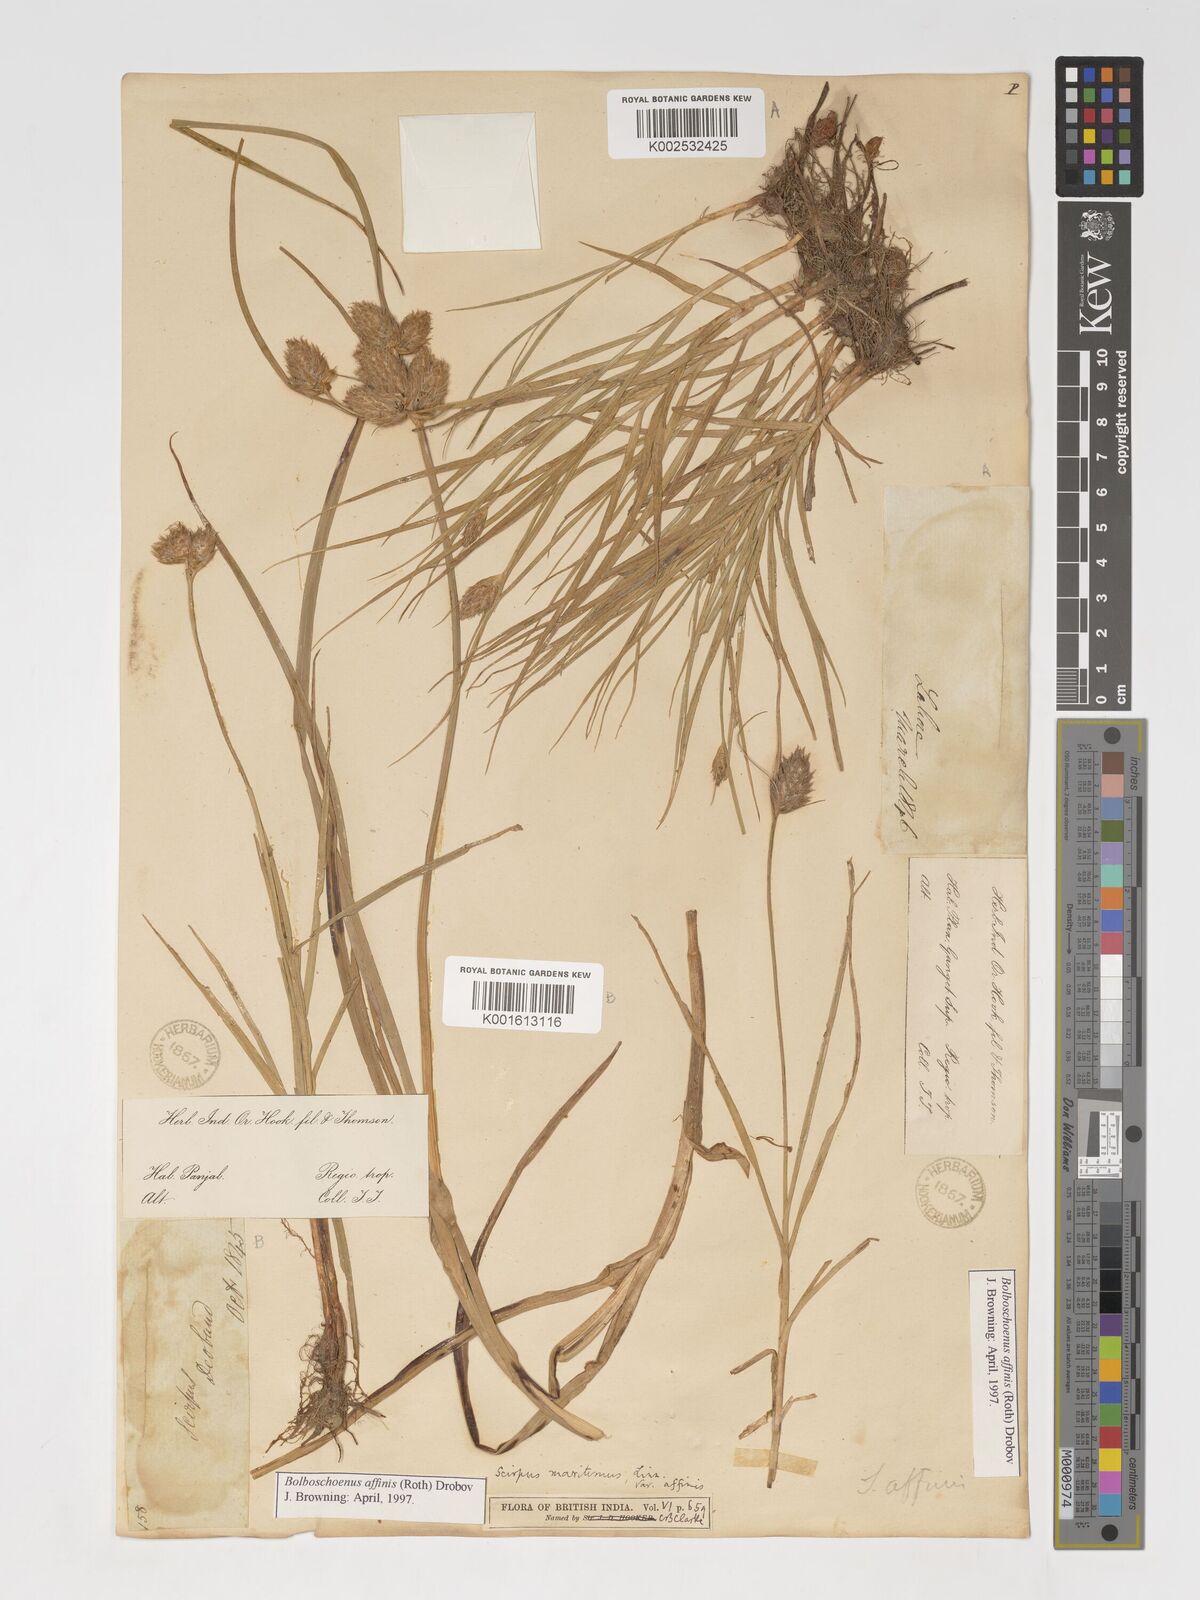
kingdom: Plantae
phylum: Tracheophyta
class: Liliopsida
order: Poales
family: Cyperaceae
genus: Bolboschoenus
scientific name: Bolboschoenus maritimus
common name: Sea club-rush
